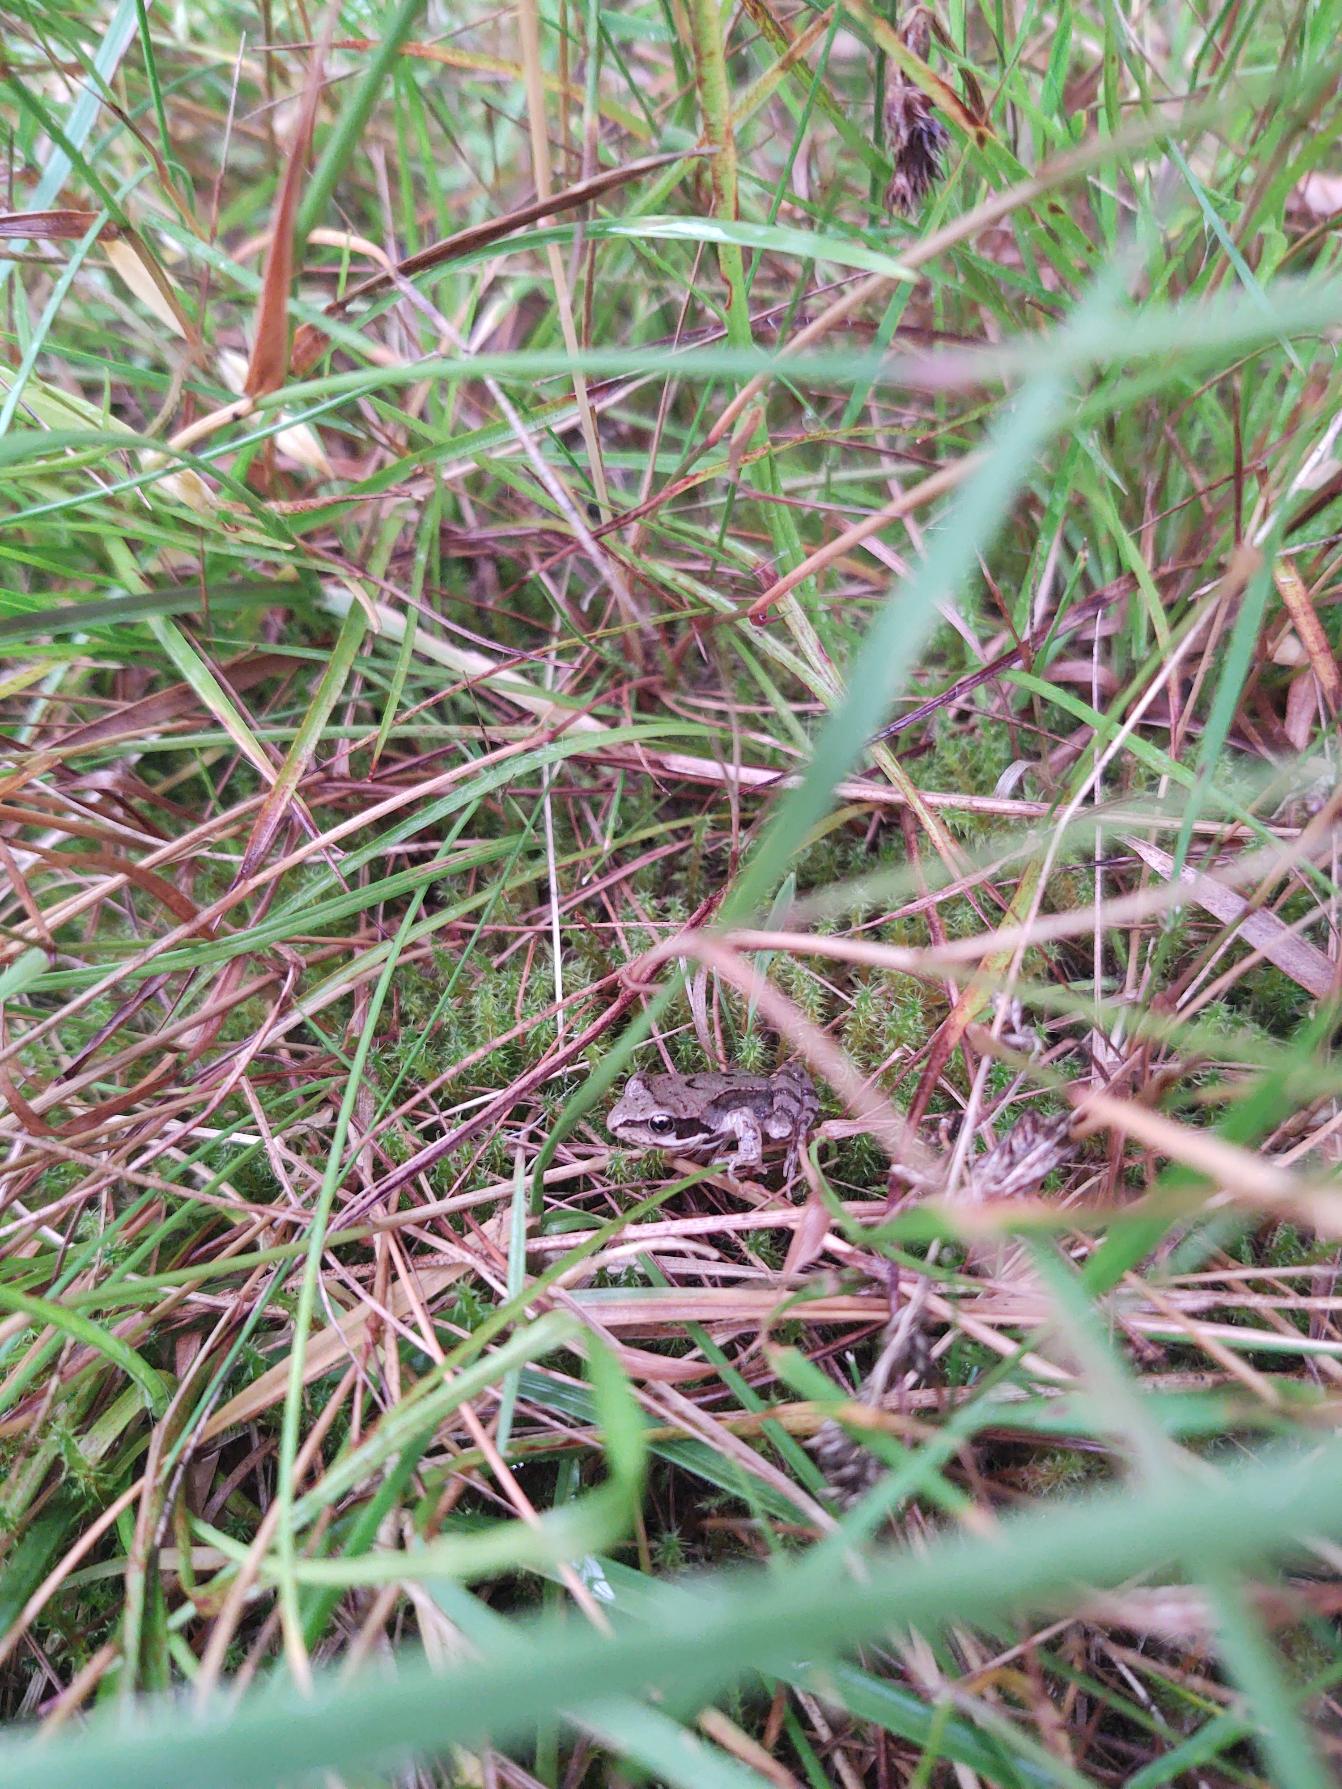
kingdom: Animalia
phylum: Chordata
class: Amphibia
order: Anura
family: Ranidae
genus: Rana
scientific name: Rana temporaria
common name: Butsnudet frø
